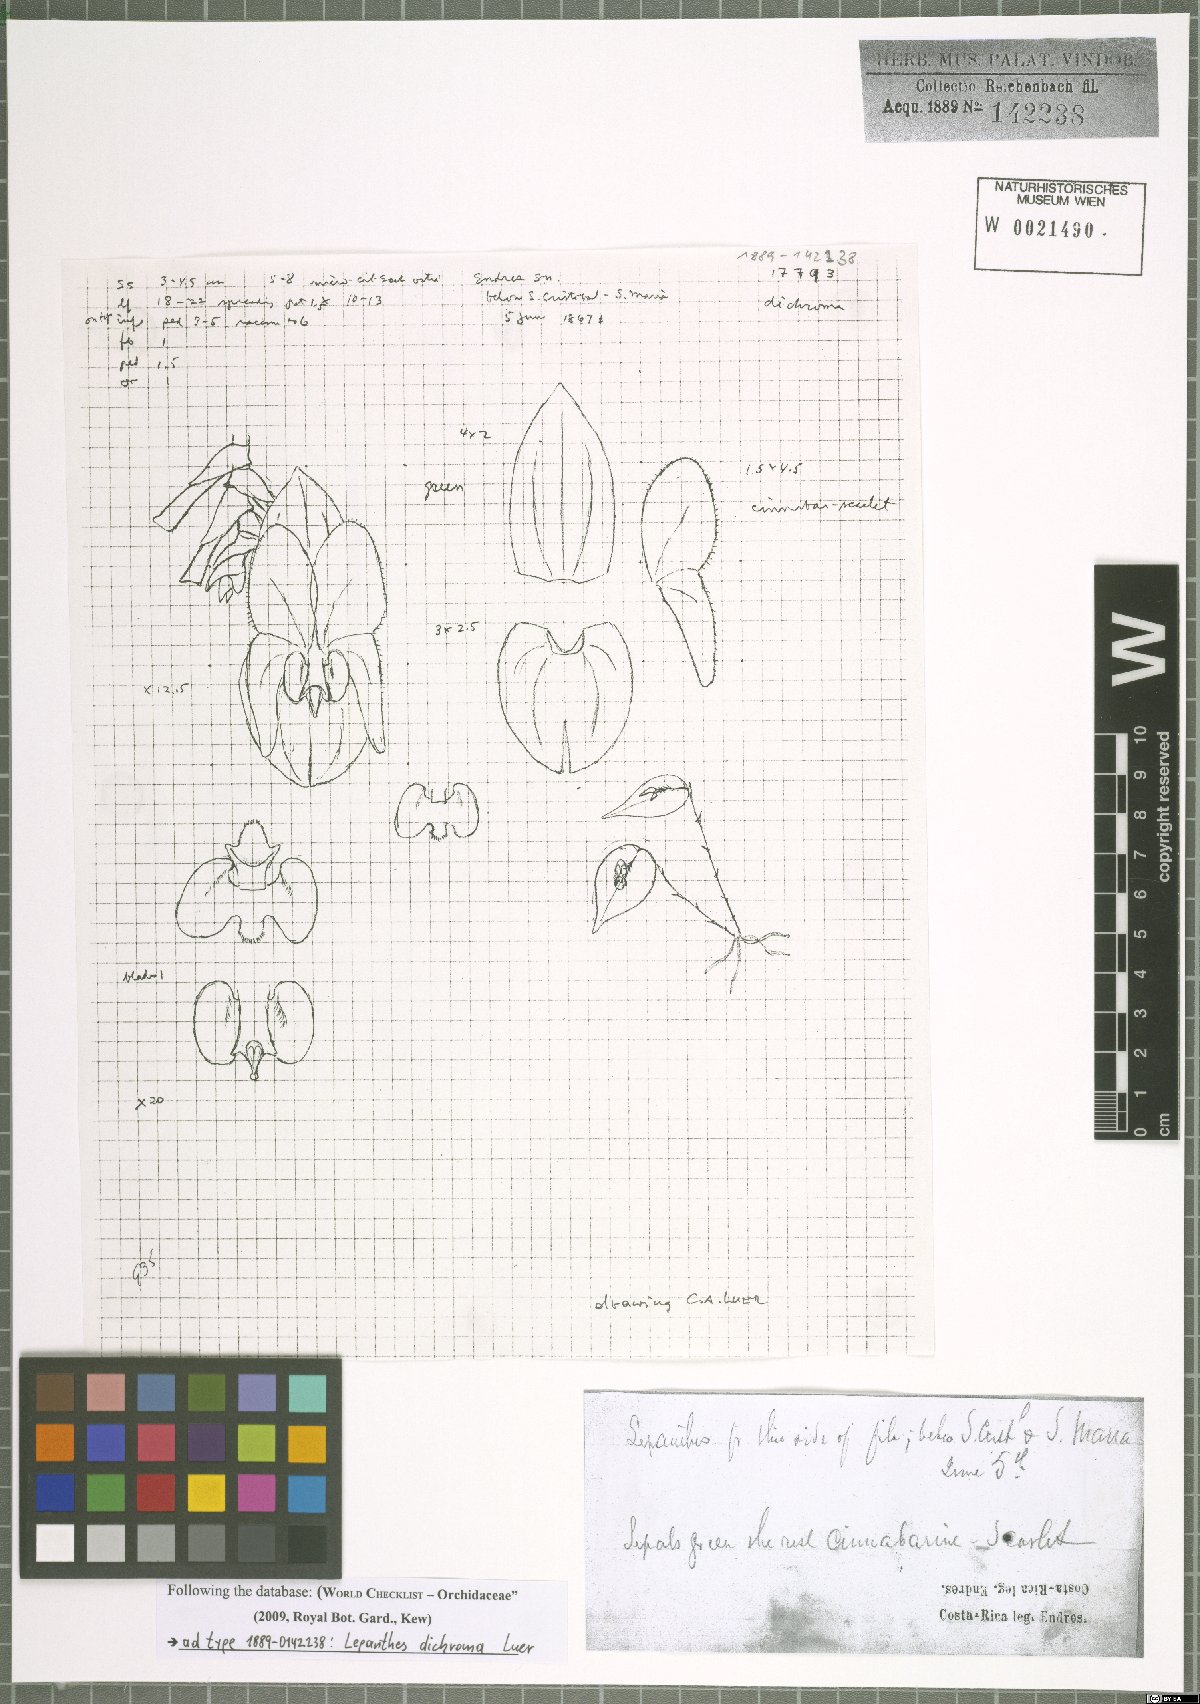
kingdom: Plantae
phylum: Tracheophyta
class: Liliopsida
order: Asparagales
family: Orchidaceae
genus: Lepanthes
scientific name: Lepanthes dichroma
